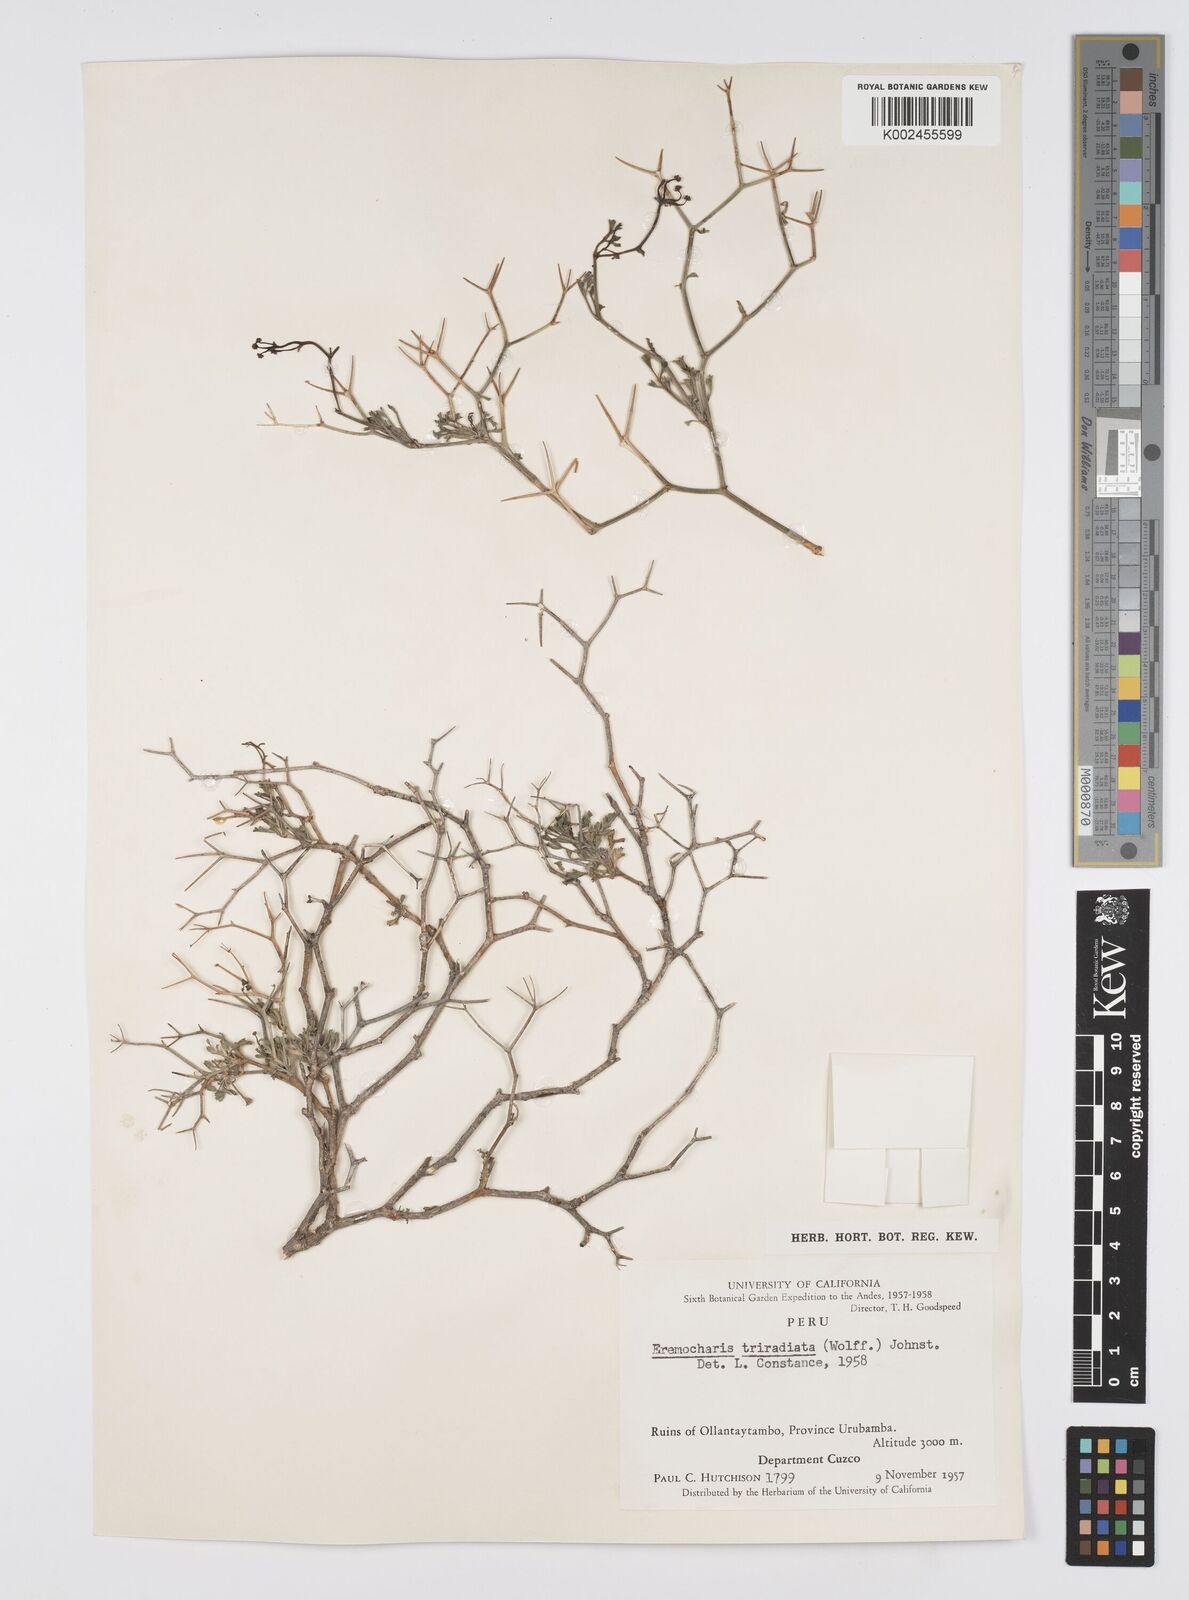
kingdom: Plantae
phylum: Tracheophyta
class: Magnoliopsida
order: Apiales
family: Apiaceae
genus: Eremocharis
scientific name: Eremocharis triradiata
